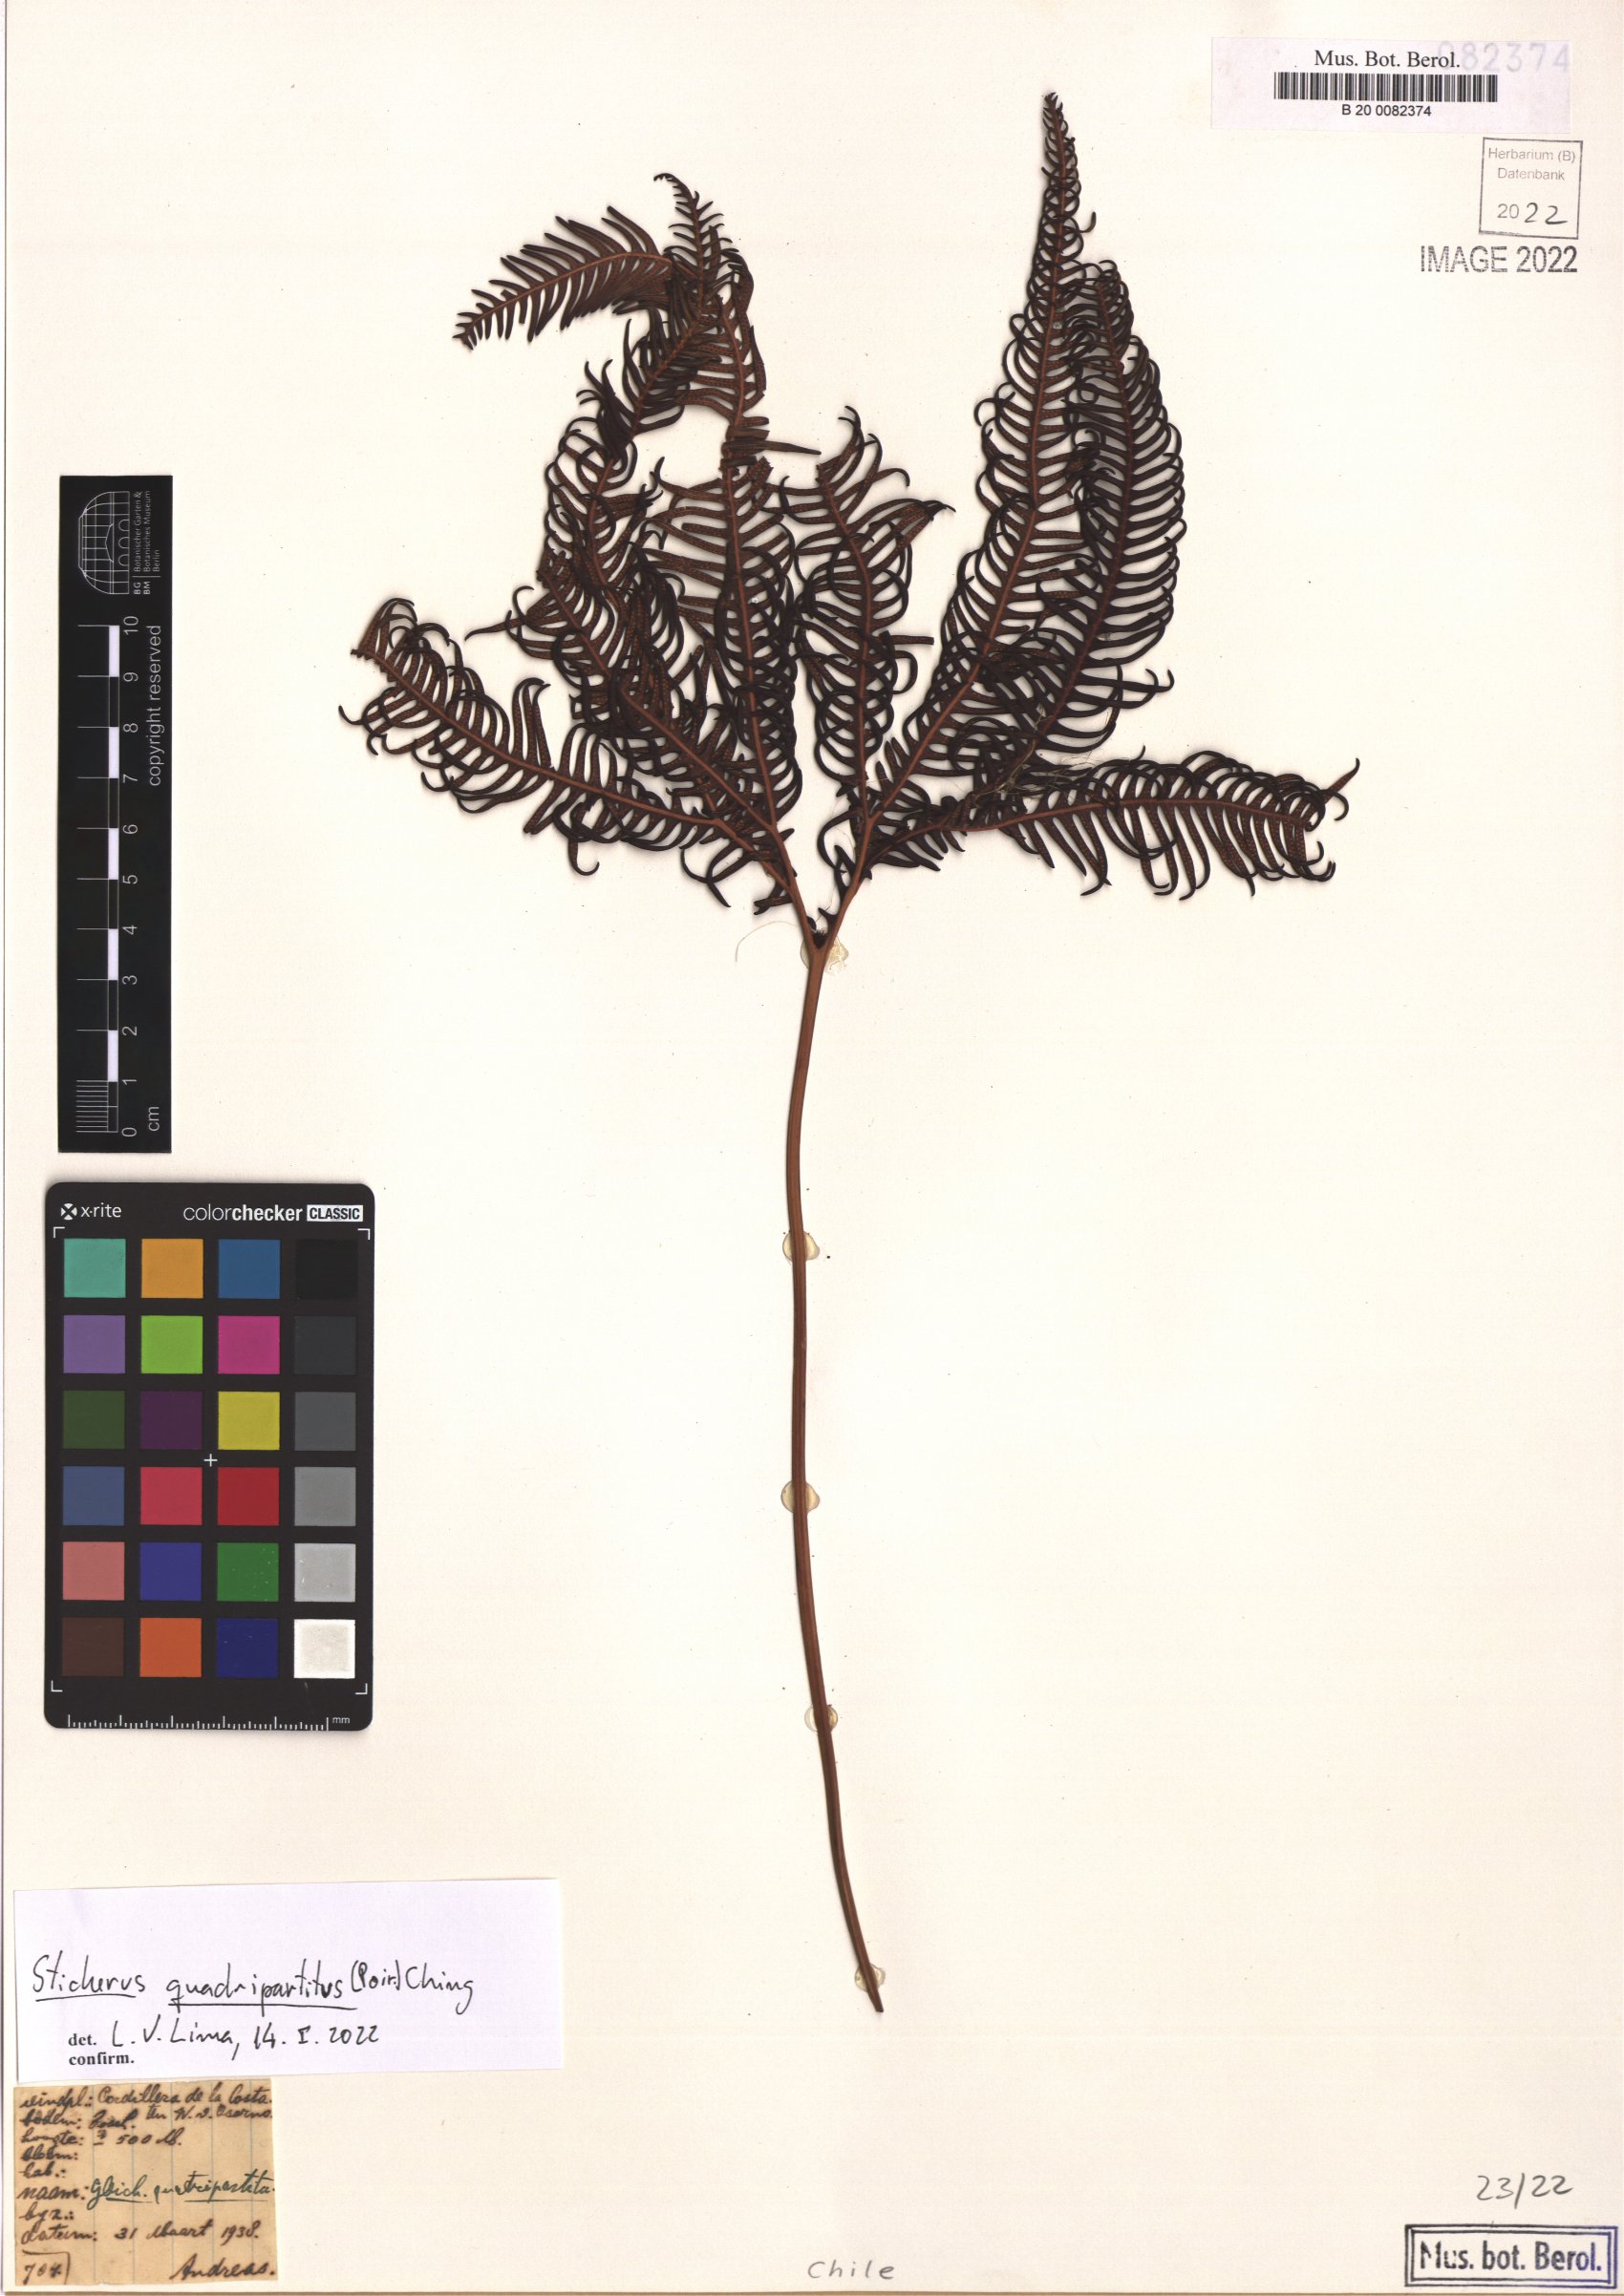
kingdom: Plantae
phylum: Tracheophyta
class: Polypodiopsida
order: Gleicheniales
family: Gleicheniaceae
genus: Sticherus
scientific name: Sticherus quadripartitus
